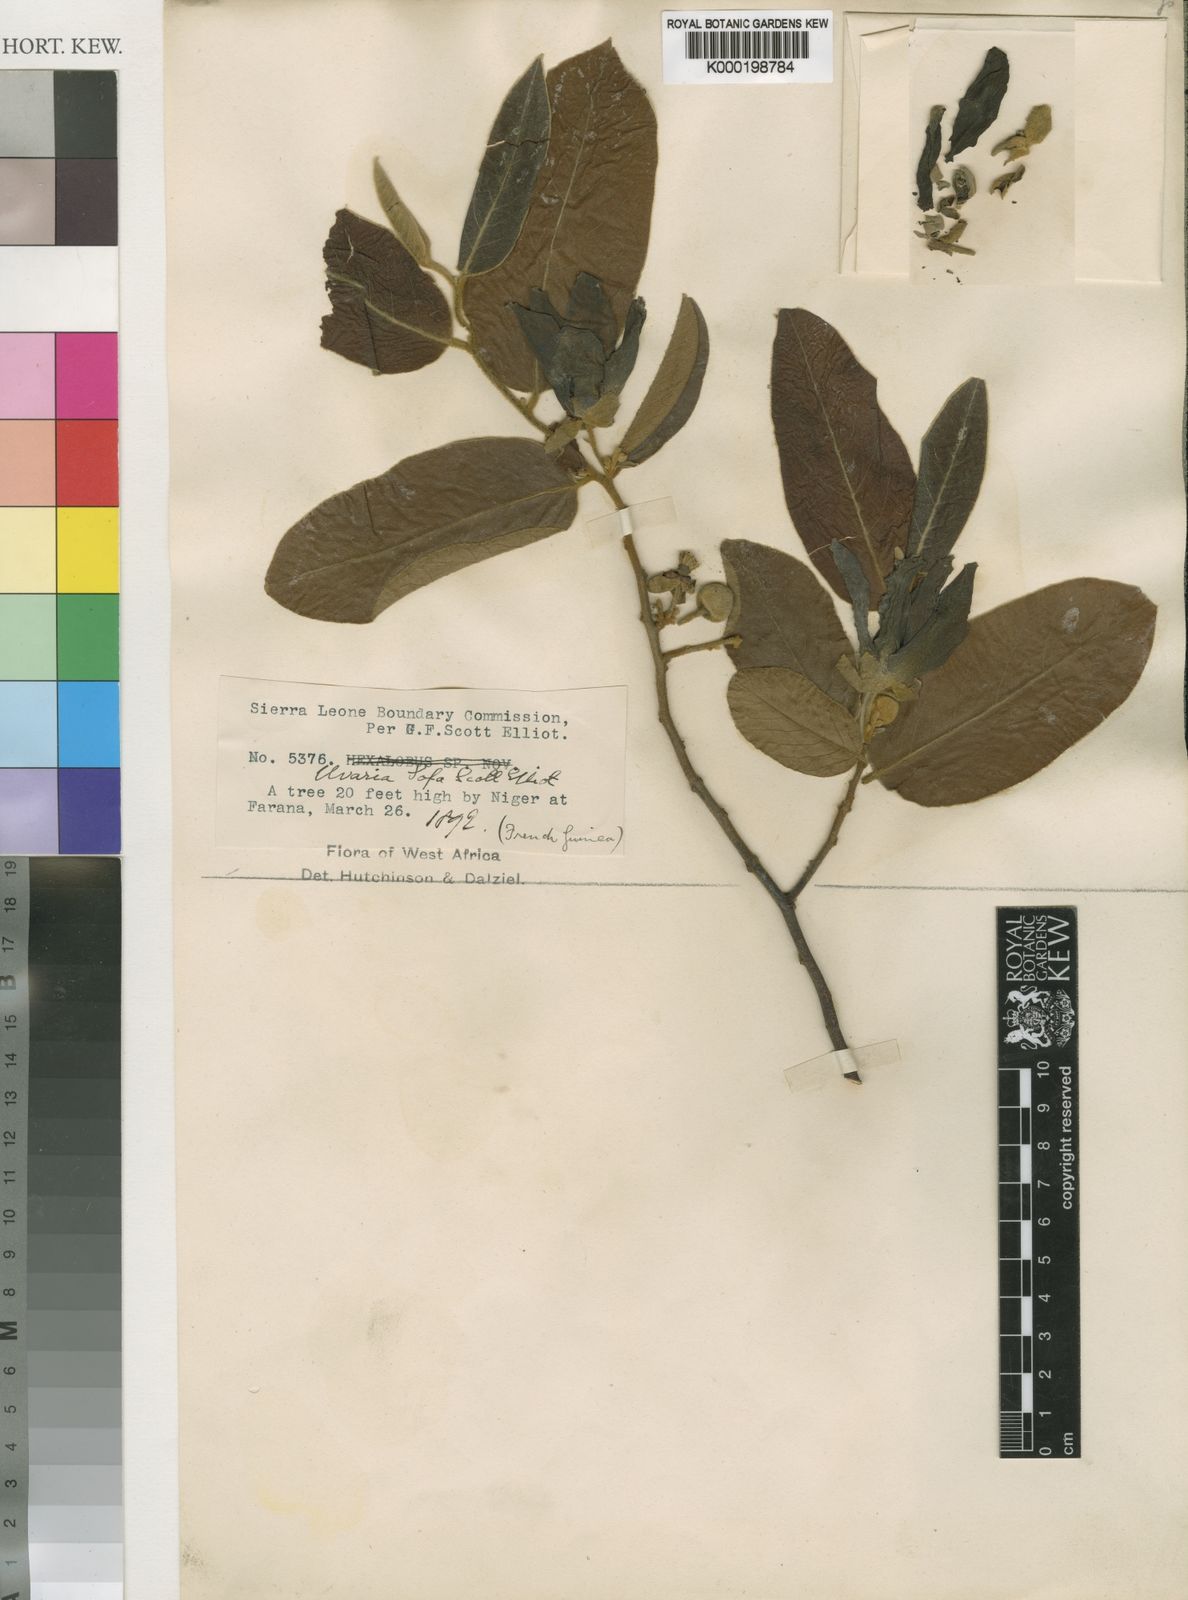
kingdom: Plantae
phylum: Tracheophyta
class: Magnoliopsida
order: Magnoliales
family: Annonaceae
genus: Uvaria
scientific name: Uvaria sofa
